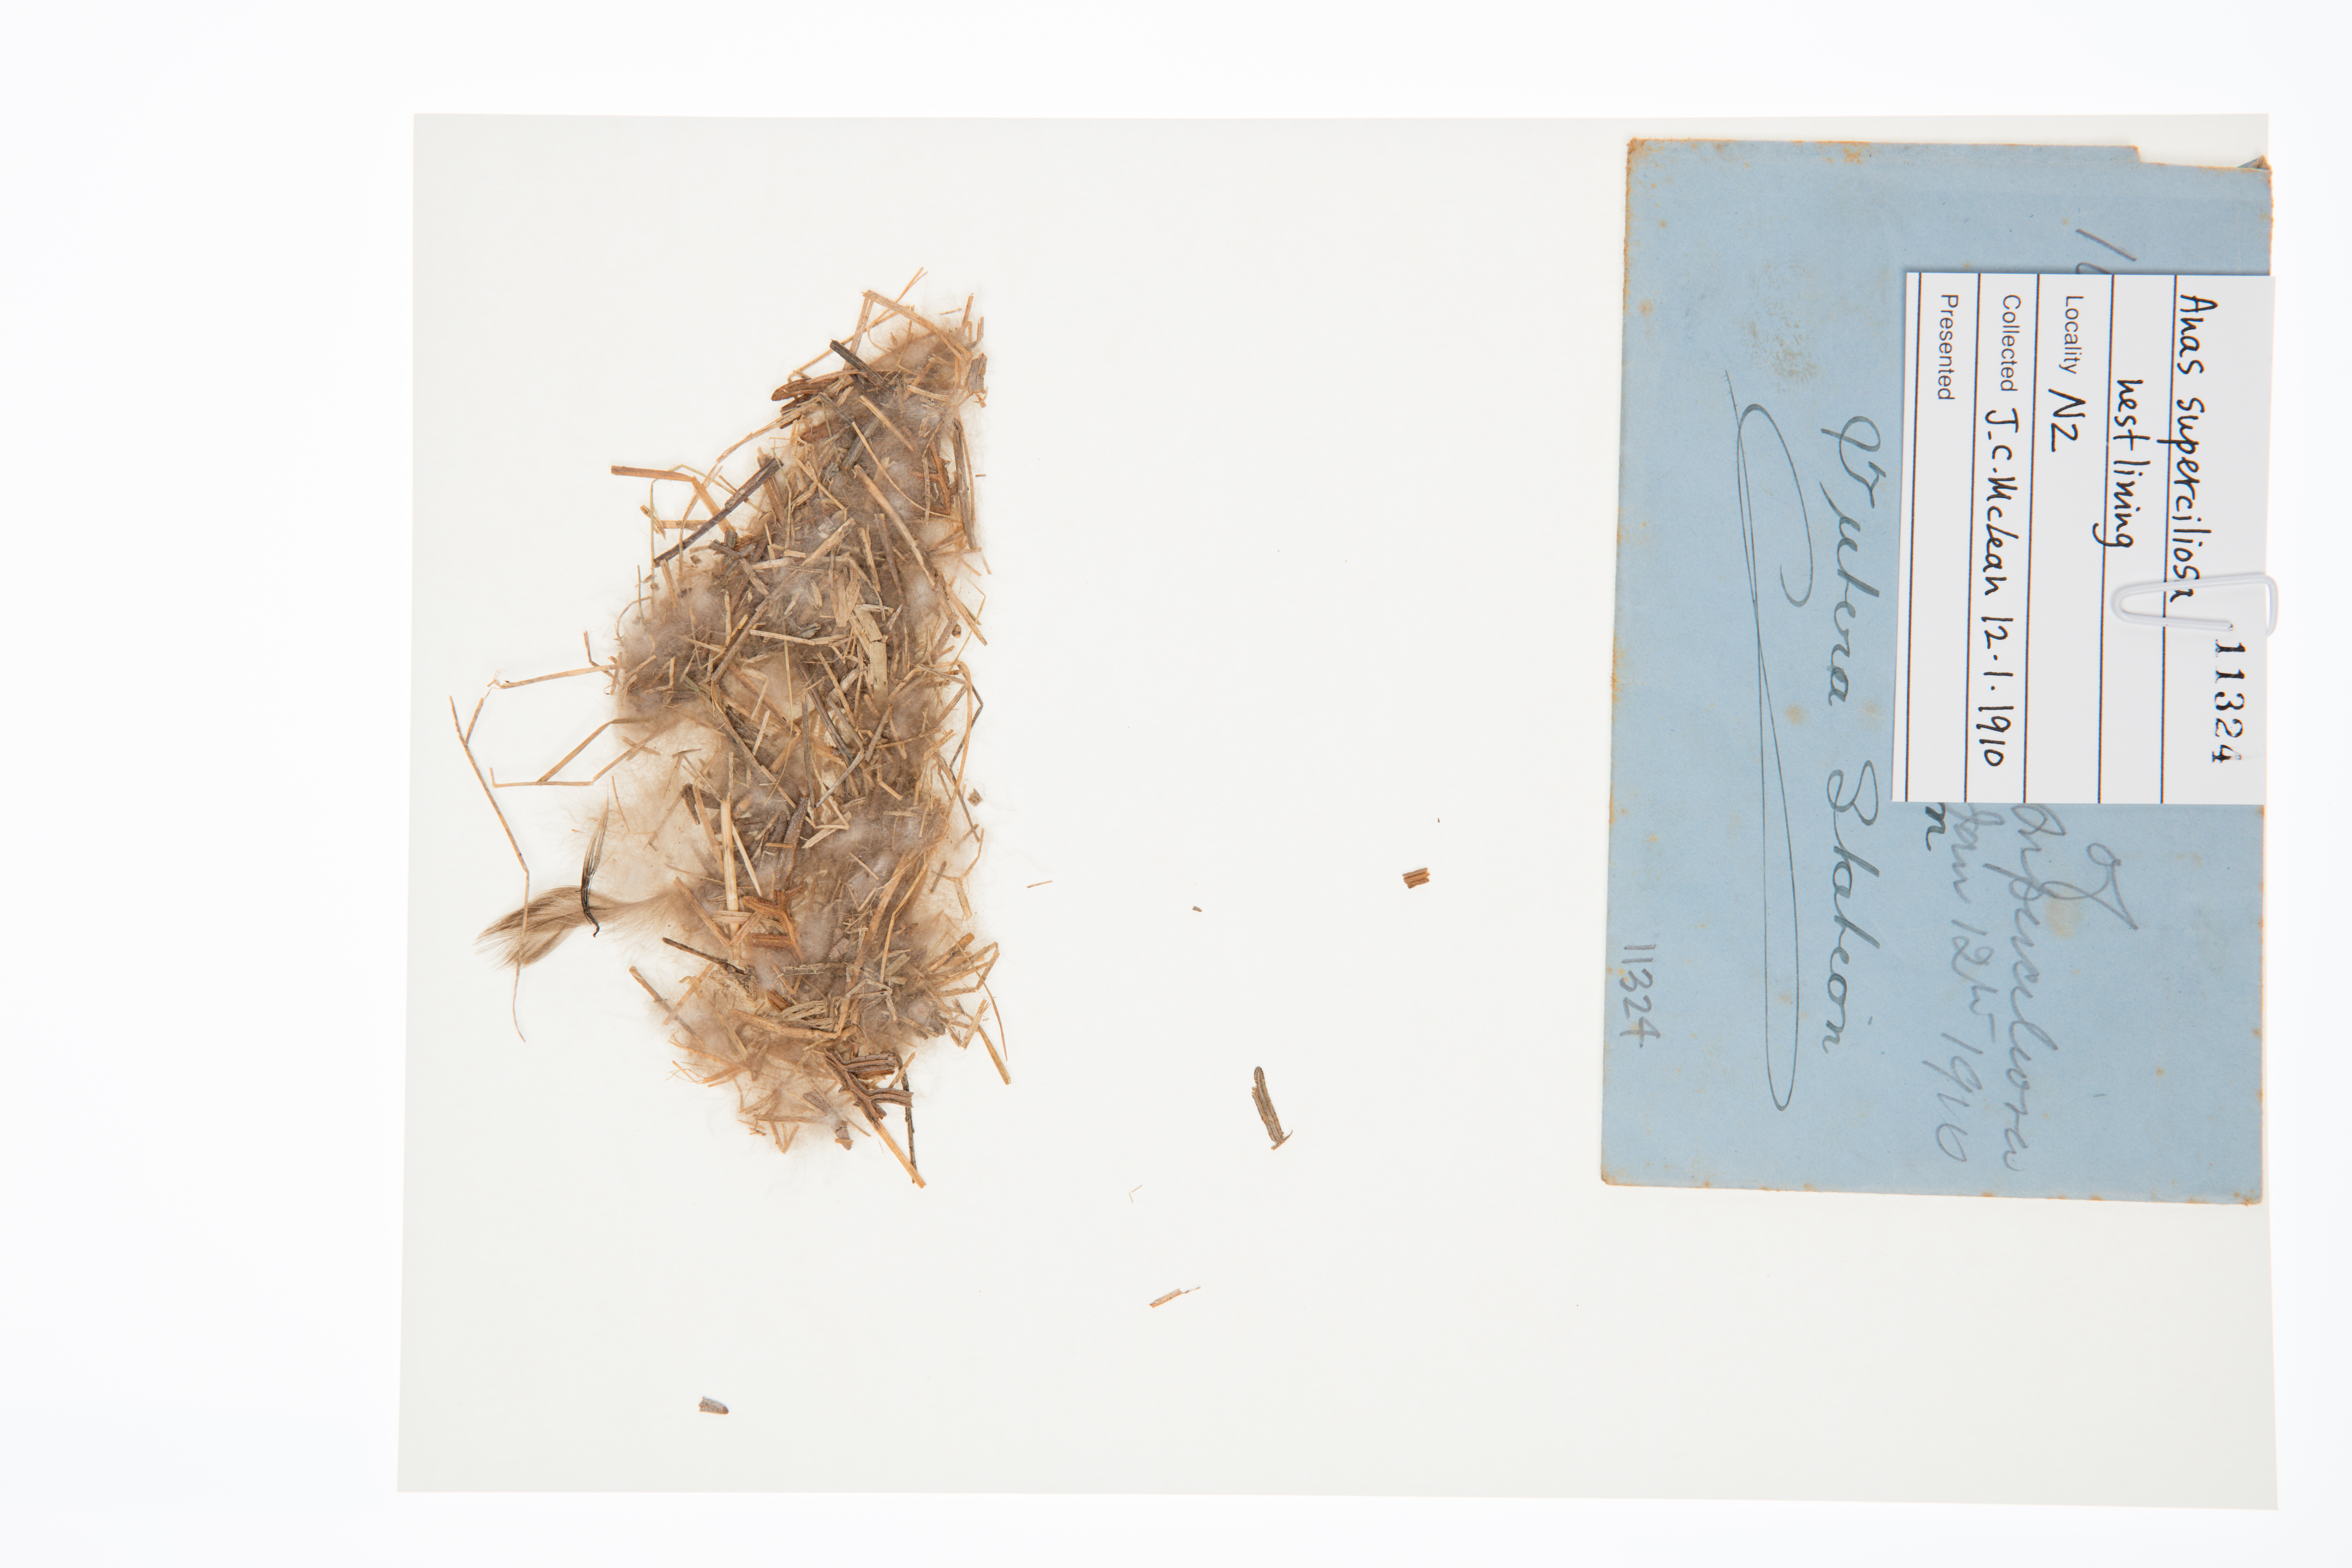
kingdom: Animalia
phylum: Chordata
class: Aves
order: Anseriformes
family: Anatidae
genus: Anas
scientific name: Anas superciliosa
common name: Pacific black duck
